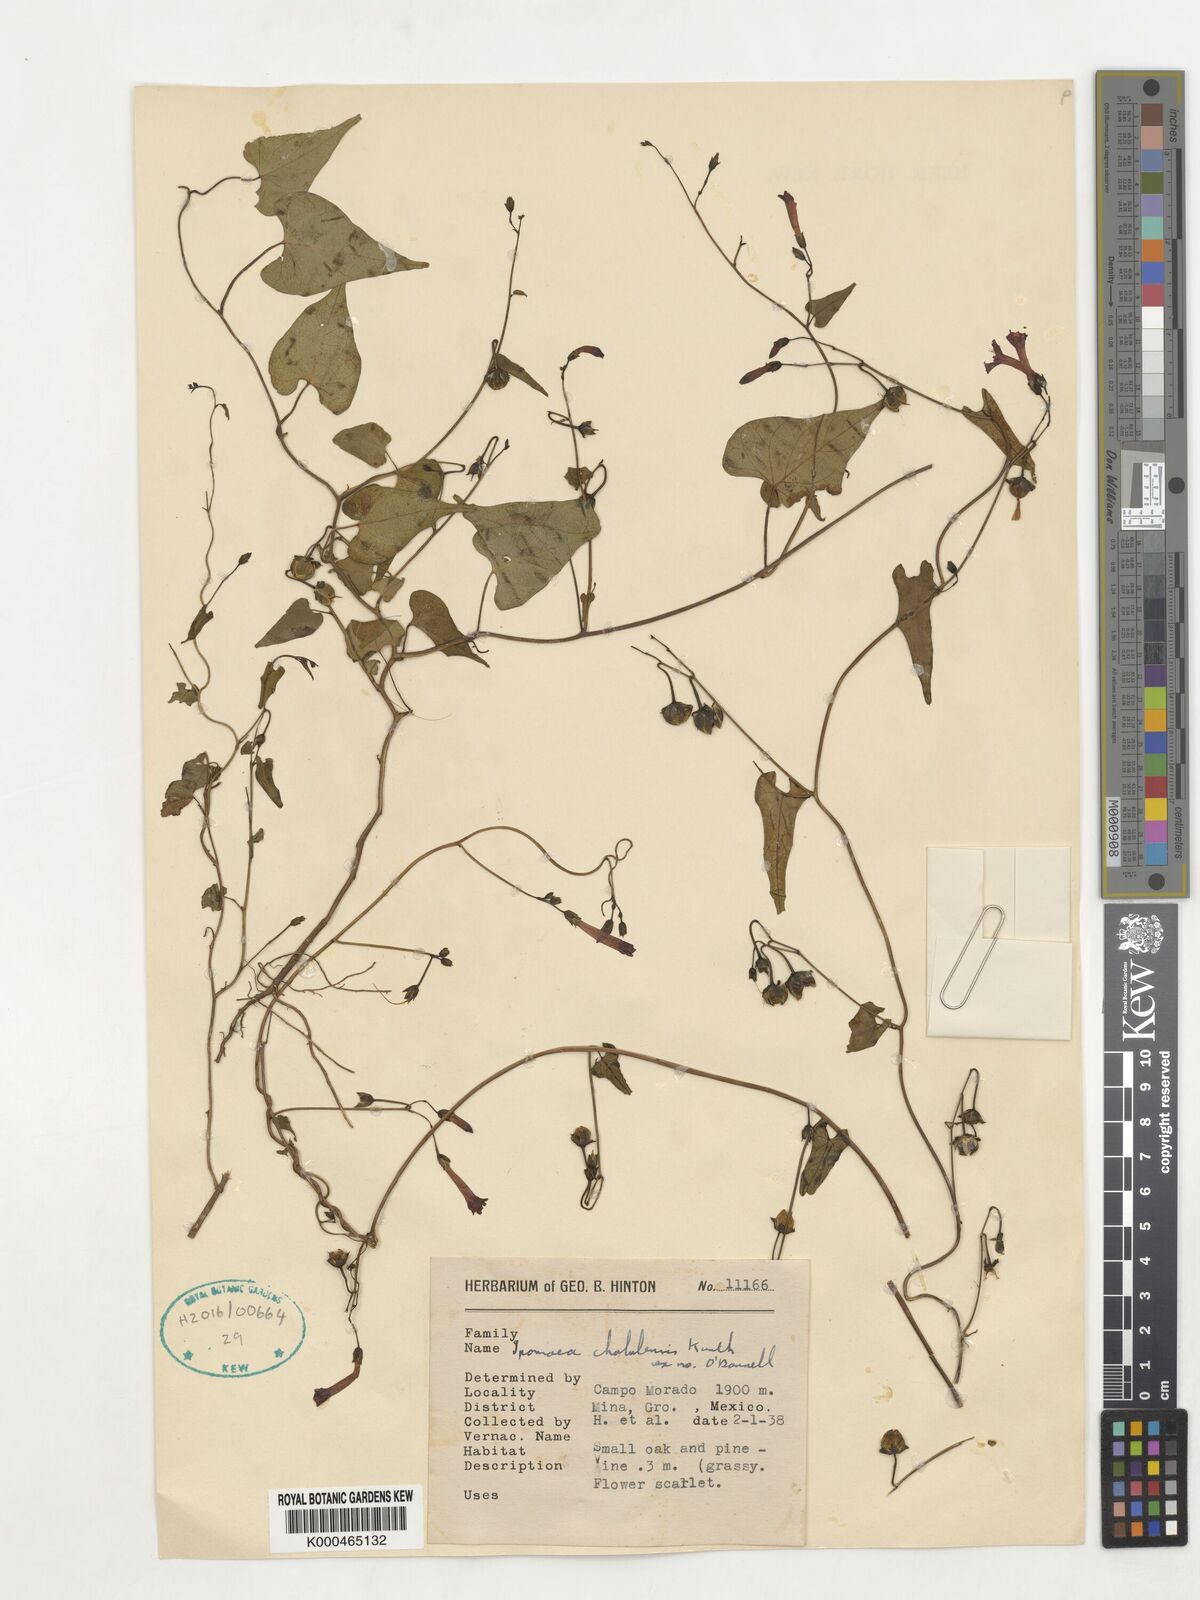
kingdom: Plantae
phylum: Tracheophyta
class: Magnoliopsida
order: Solanales
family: Convolvulaceae
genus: Ipomoea
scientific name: Ipomoea cholulensis
